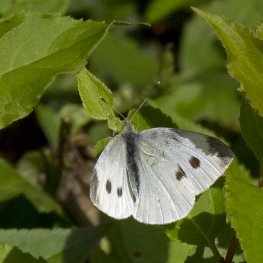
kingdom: Animalia
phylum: Arthropoda
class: Insecta
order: Lepidoptera
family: Pieridae
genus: Pieris
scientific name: Pieris rapae
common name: Cabbage White
